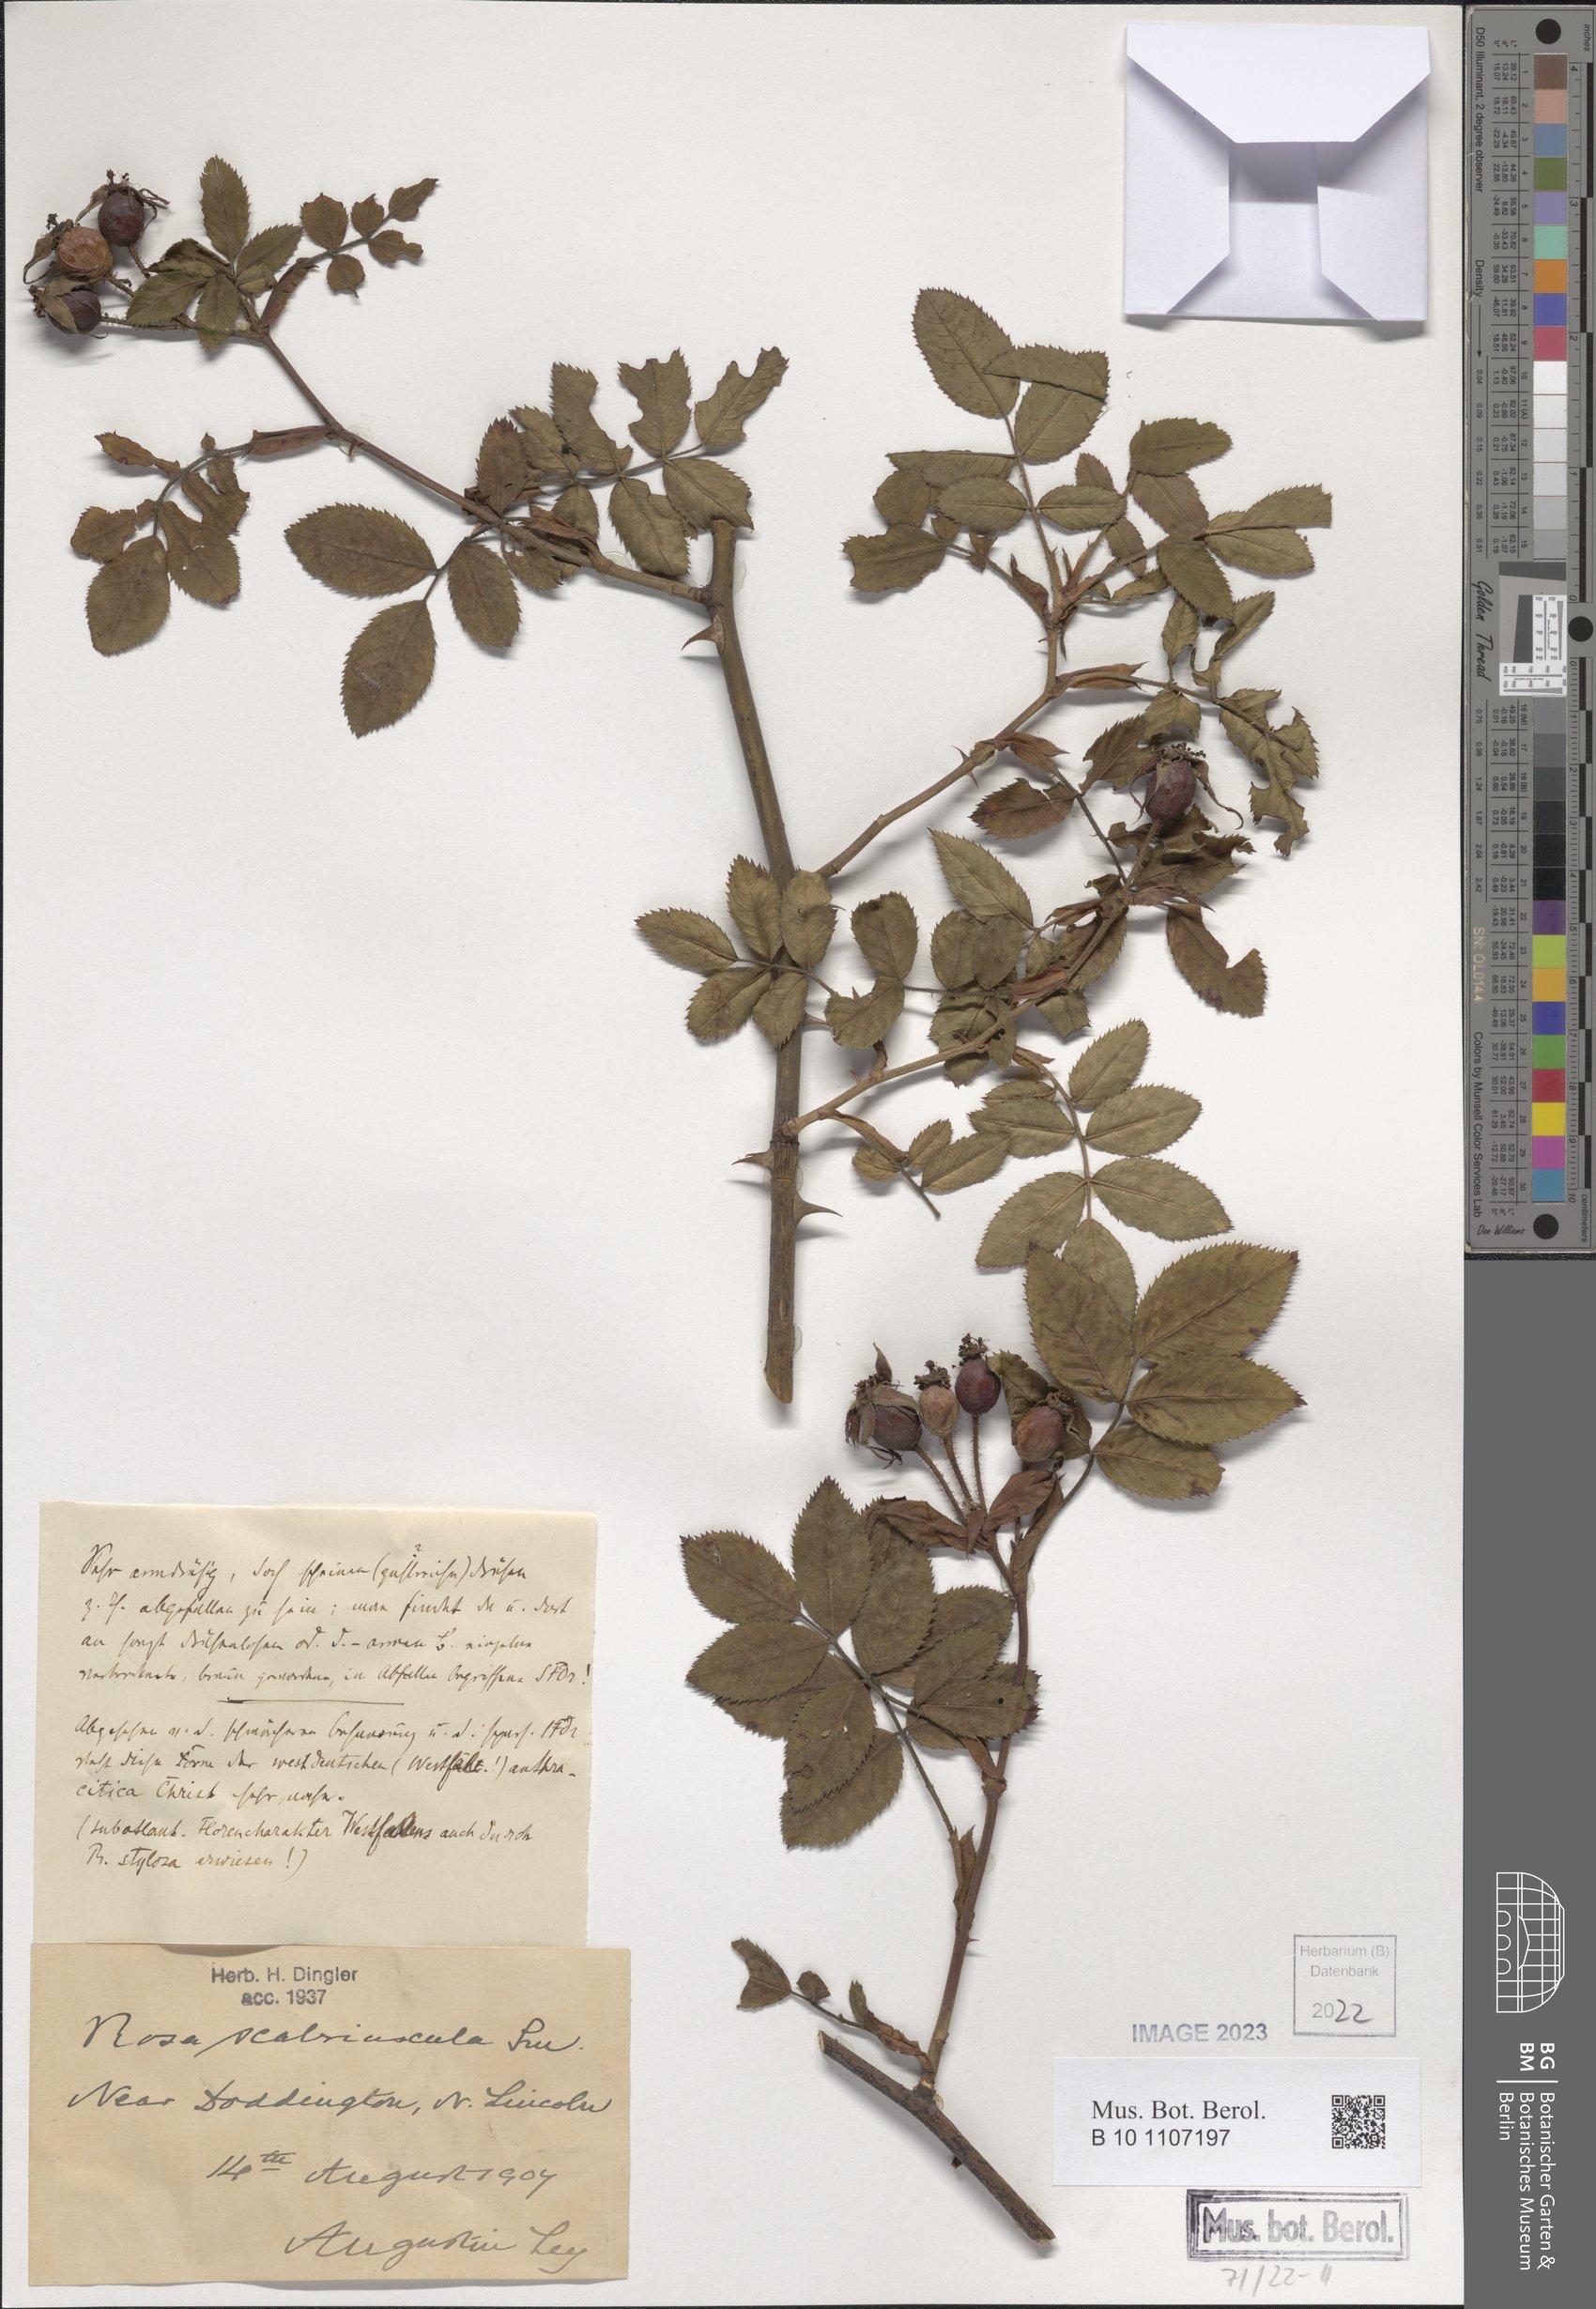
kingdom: Plantae
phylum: Tracheophyta
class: Magnoliopsida
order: Rosales
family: Rosaceae
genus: Rosa
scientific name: Rosa scabriuscula
